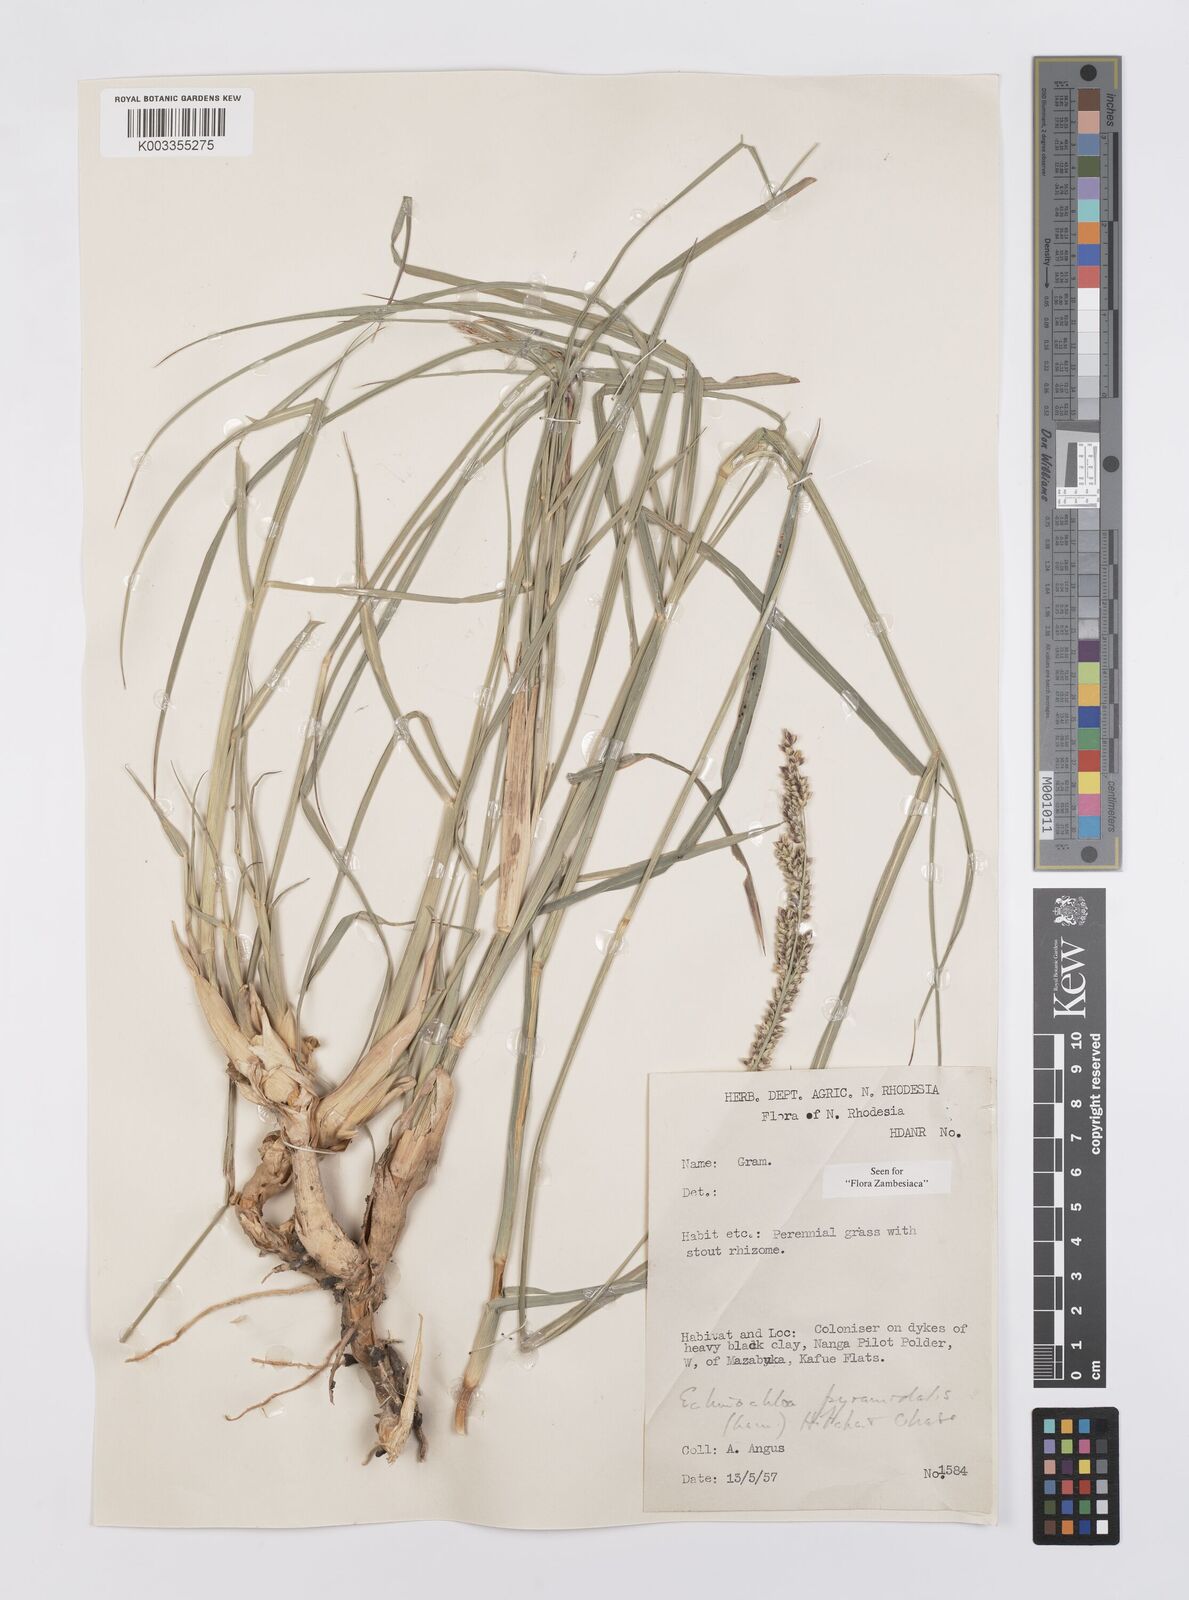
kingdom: Plantae
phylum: Tracheophyta
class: Liliopsida
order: Poales
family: Poaceae
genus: Echinochloa
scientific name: Echinochloa pyramidalis
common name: Antelope grass
